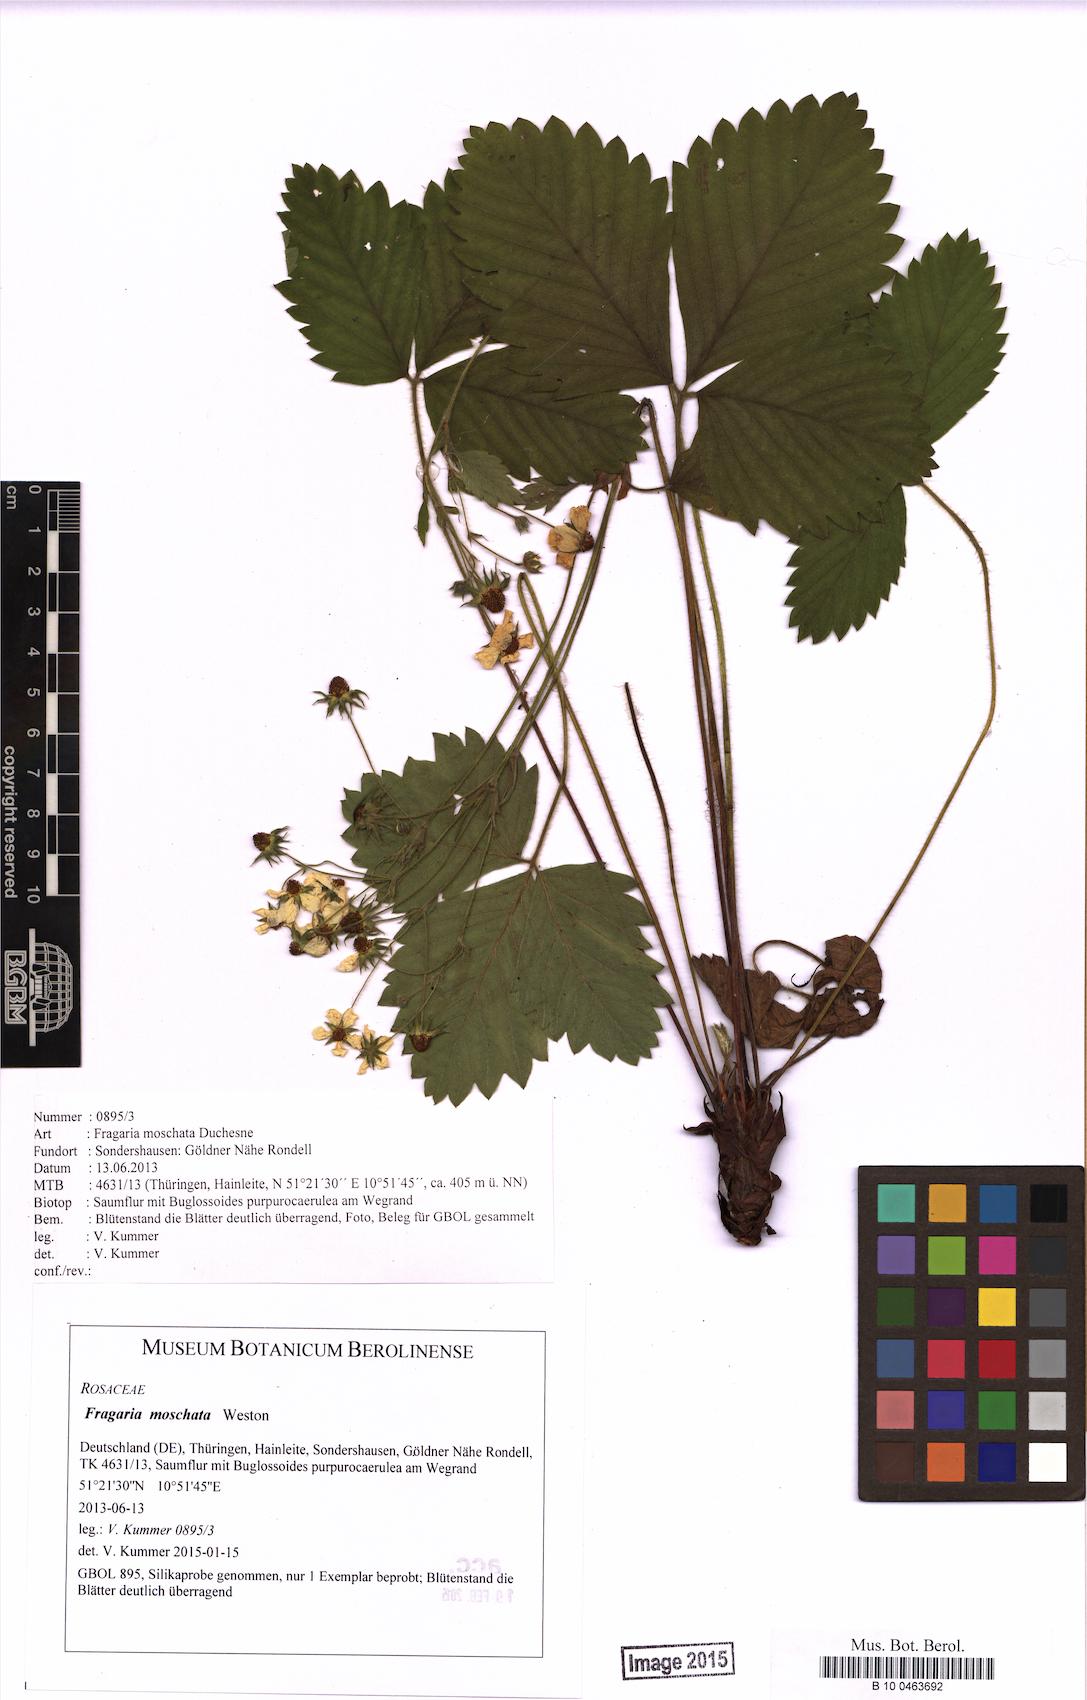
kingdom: Plantae
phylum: Tracheophyta
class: Magnoliopsida
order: Rosales
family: Rosaceae
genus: Fragaria
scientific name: Fragaria moschata
